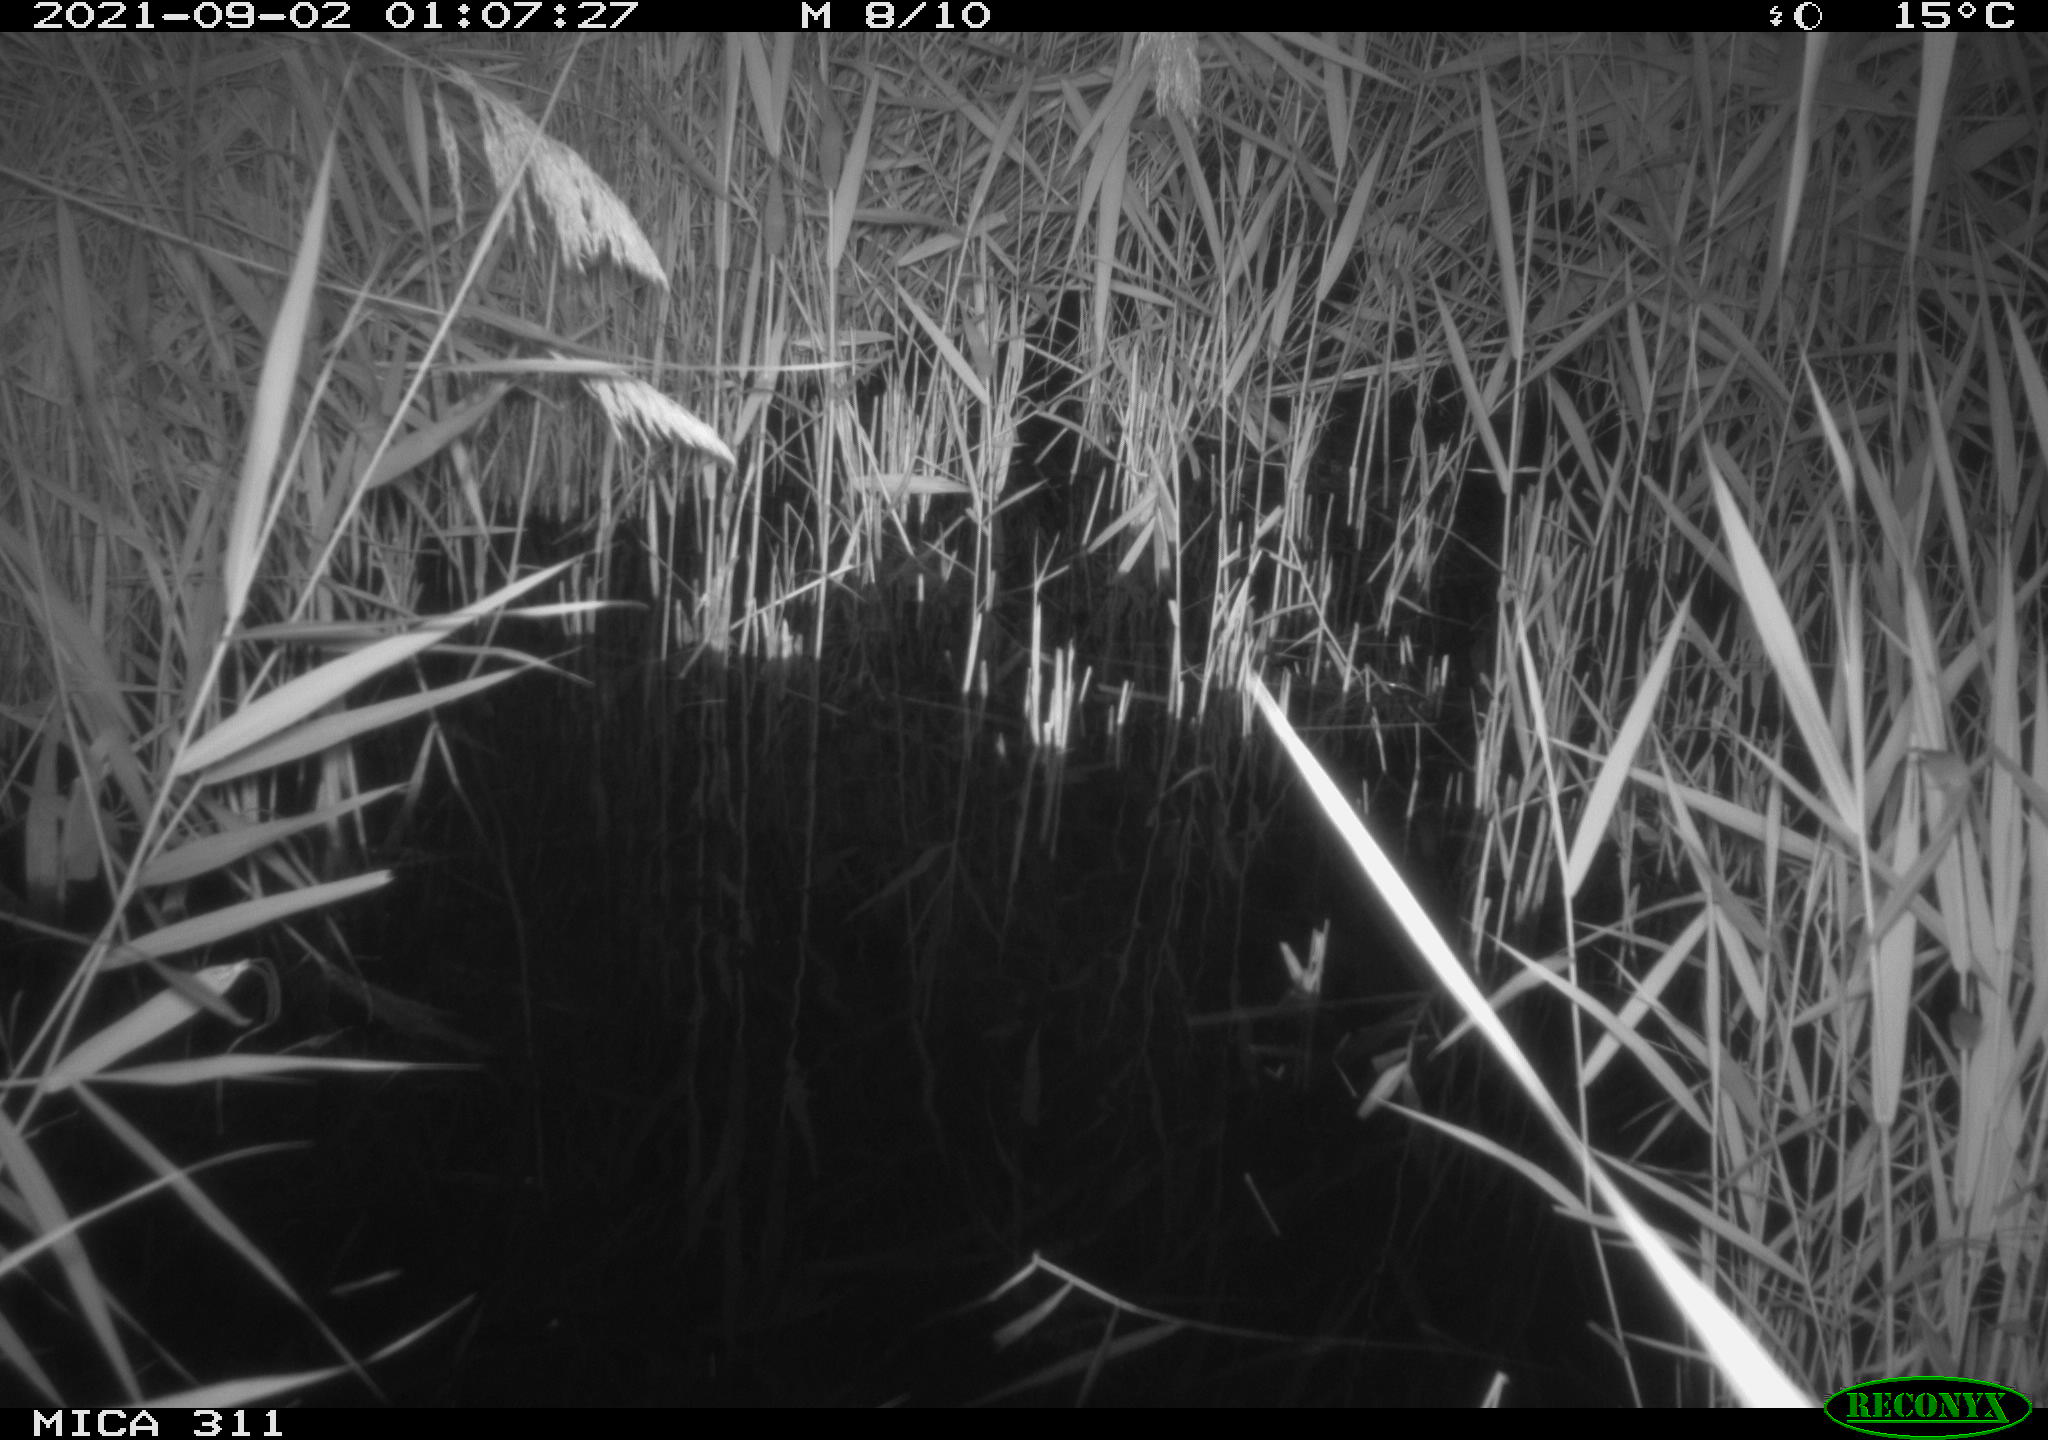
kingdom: Animalia
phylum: Chordata
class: Mammalia
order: Rodentia
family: Muridae
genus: Rattus
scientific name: Rattus norvegicus
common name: Brown rat
